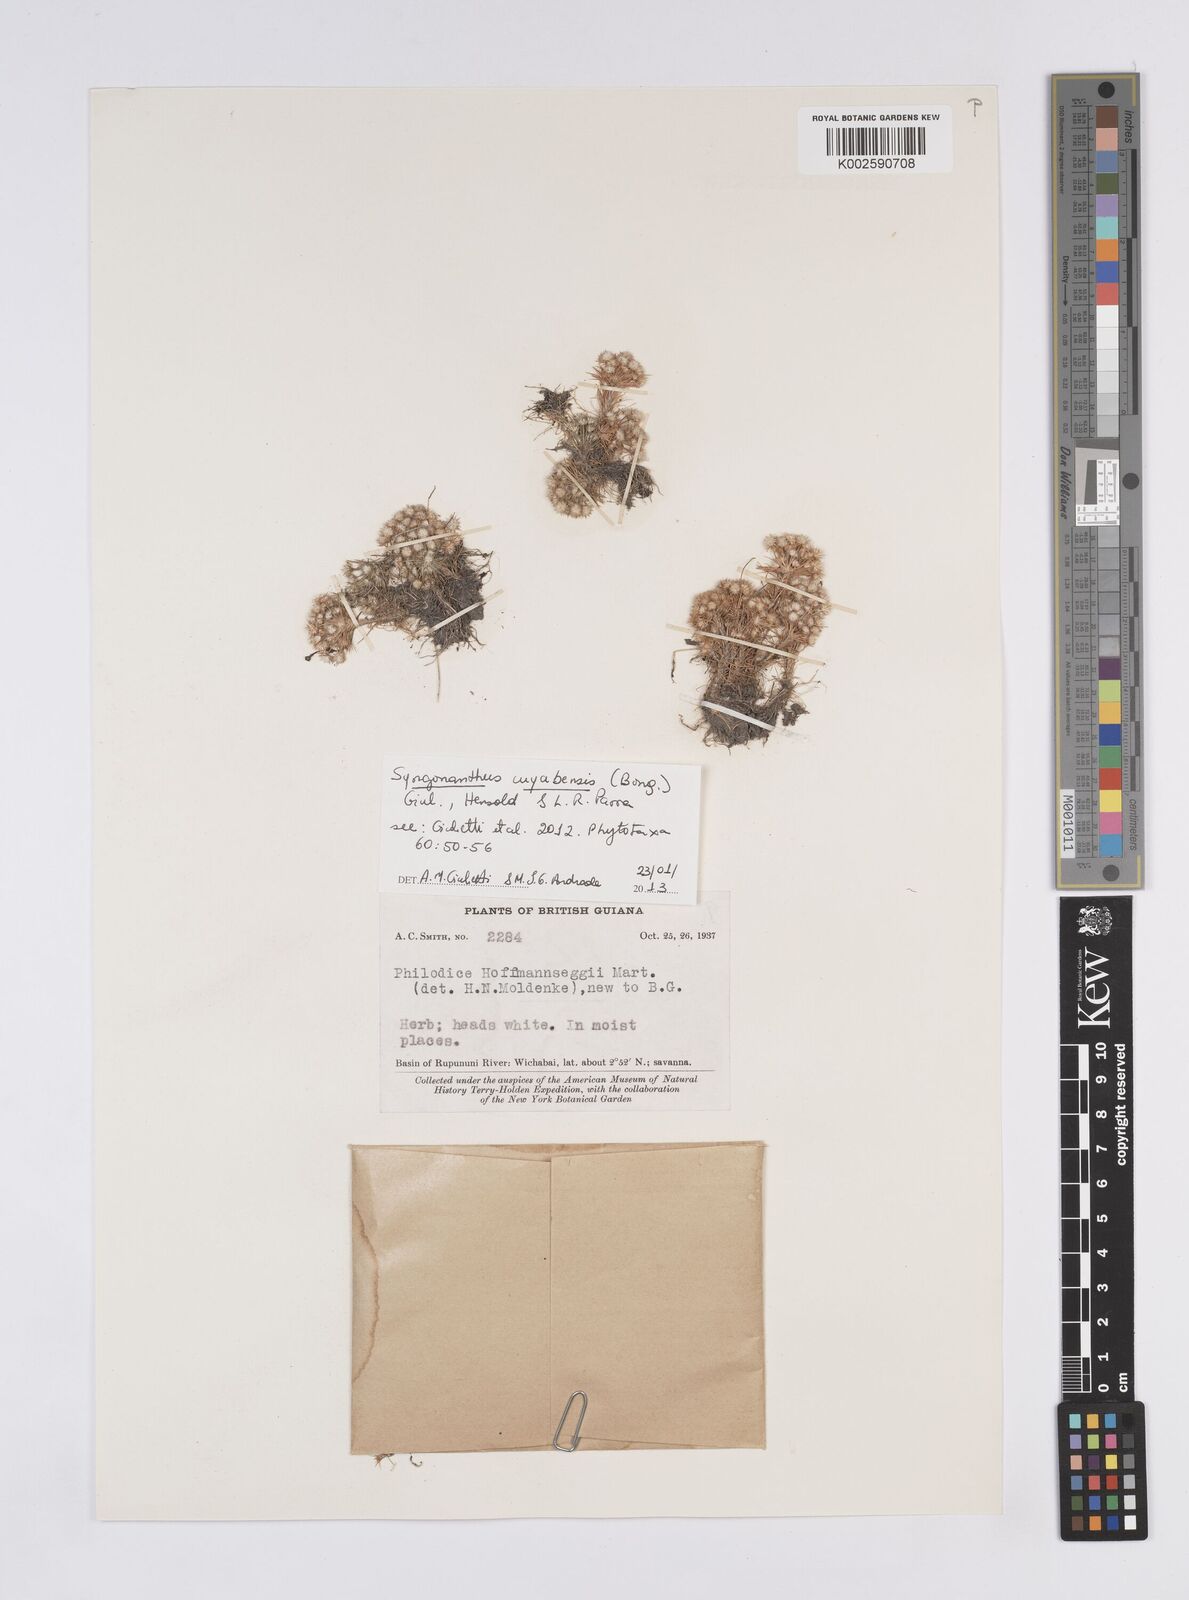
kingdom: Plantae
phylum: Tracheophyta
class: Liliopsida
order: Poales
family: Eriocaulaceae
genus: Syngonanthus
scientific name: Syngonanthus cuyabensis
